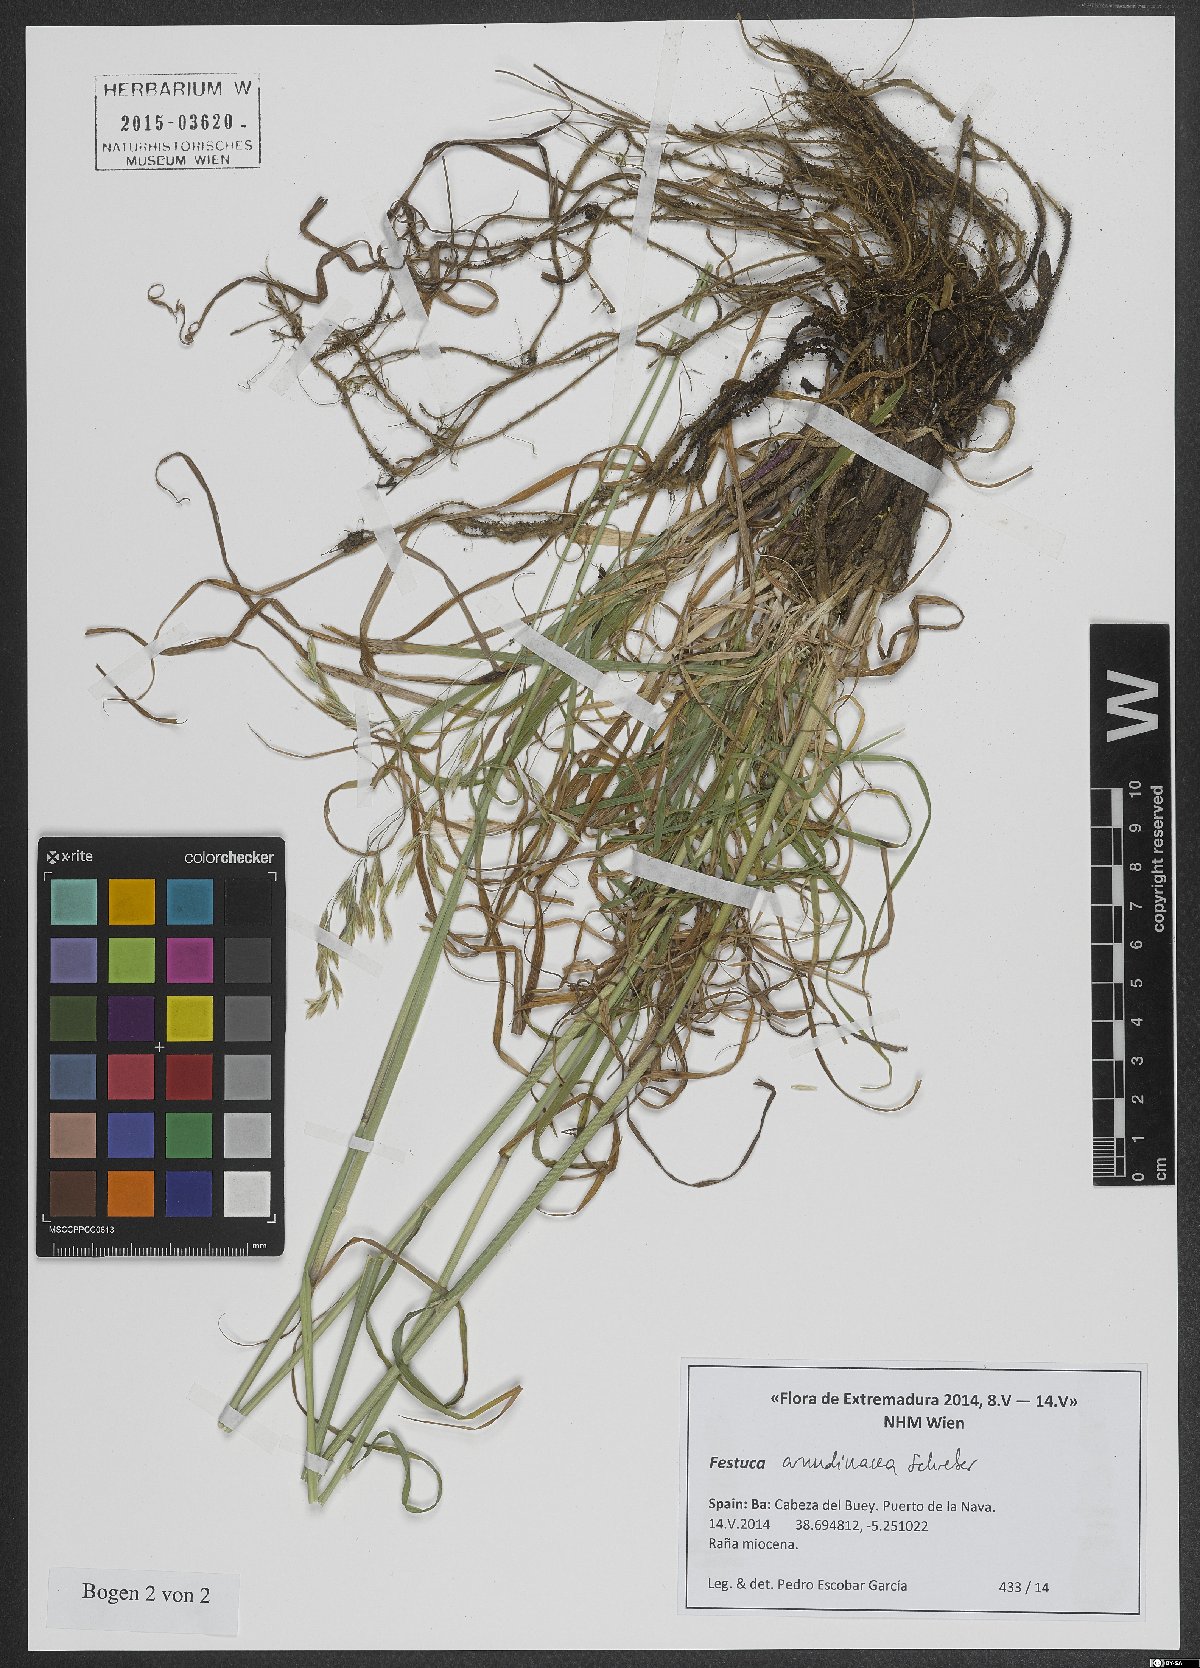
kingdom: Plantae
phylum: Tracheophyta
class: Liliopsida
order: Poales
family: Poaceae
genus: Lolium
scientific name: Lolium arundinaceum
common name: Reed fescue
